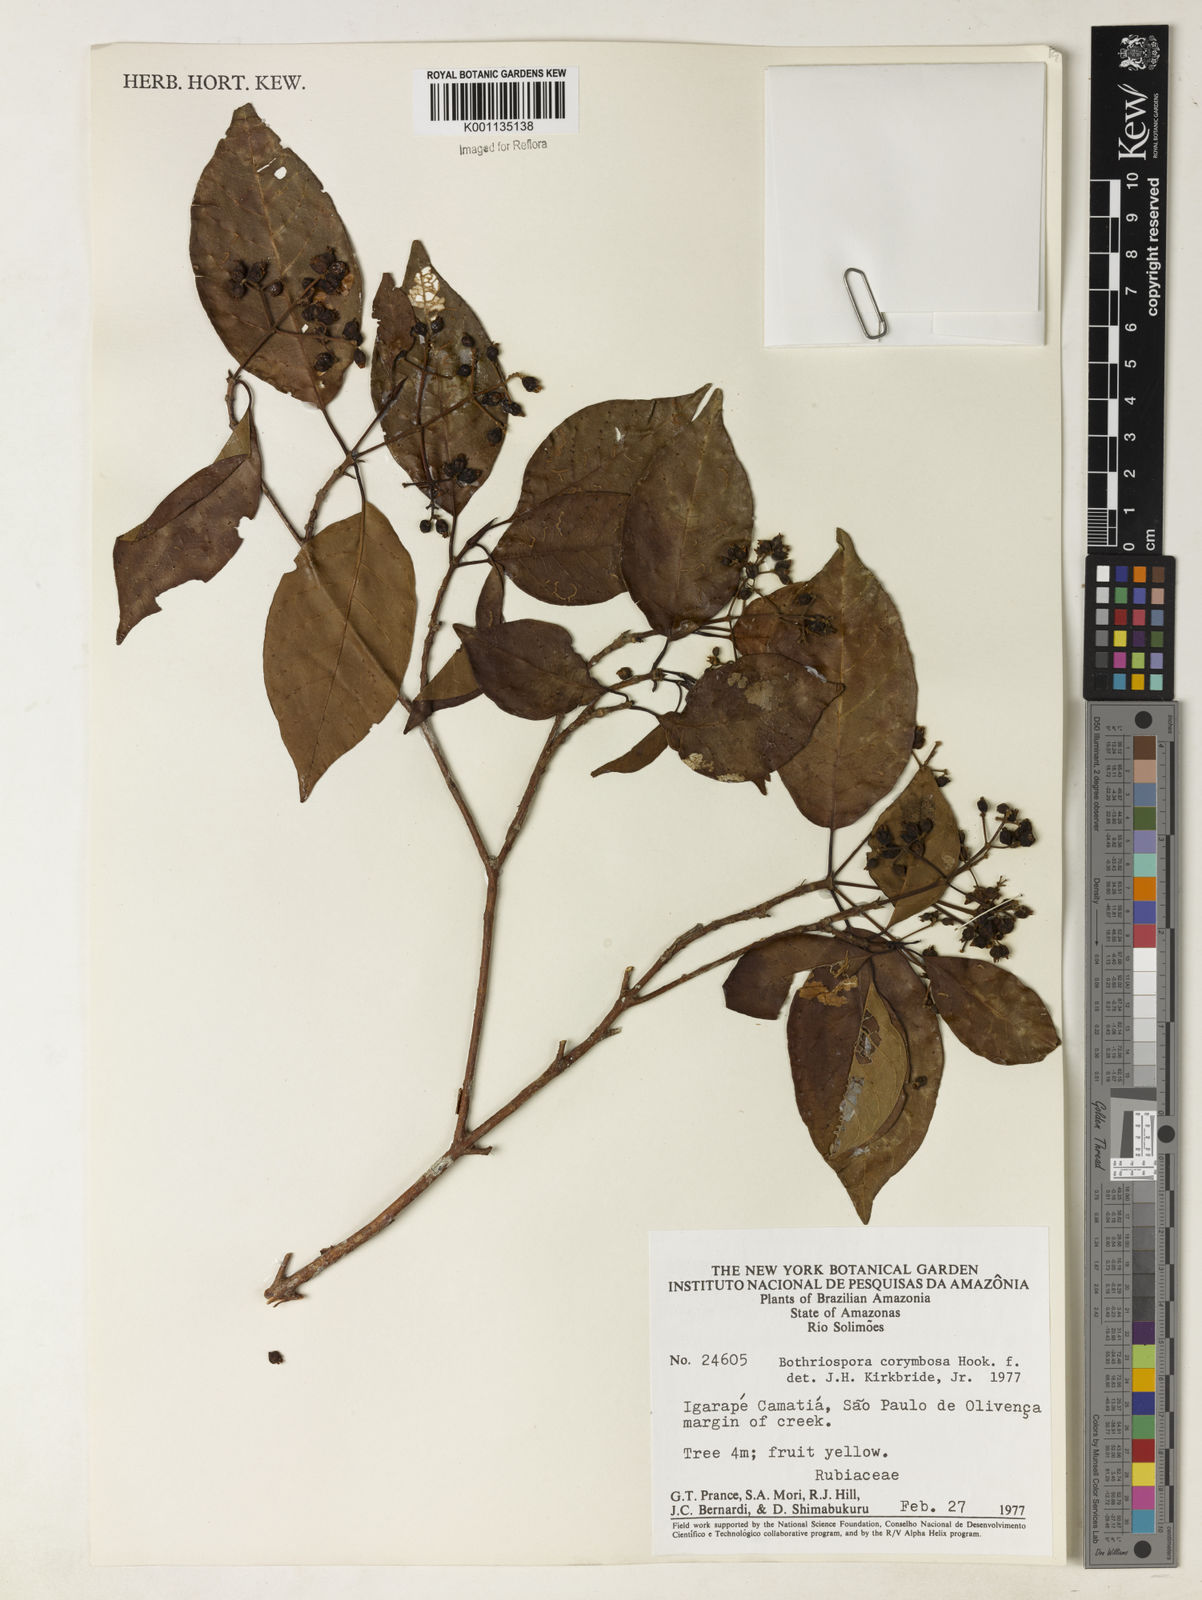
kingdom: Plantae
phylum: Tracheophyta
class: Magnoliopsida
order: Gentianales
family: Rubiaceae
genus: Bothriospora
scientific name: Bothriospora corymbosa
